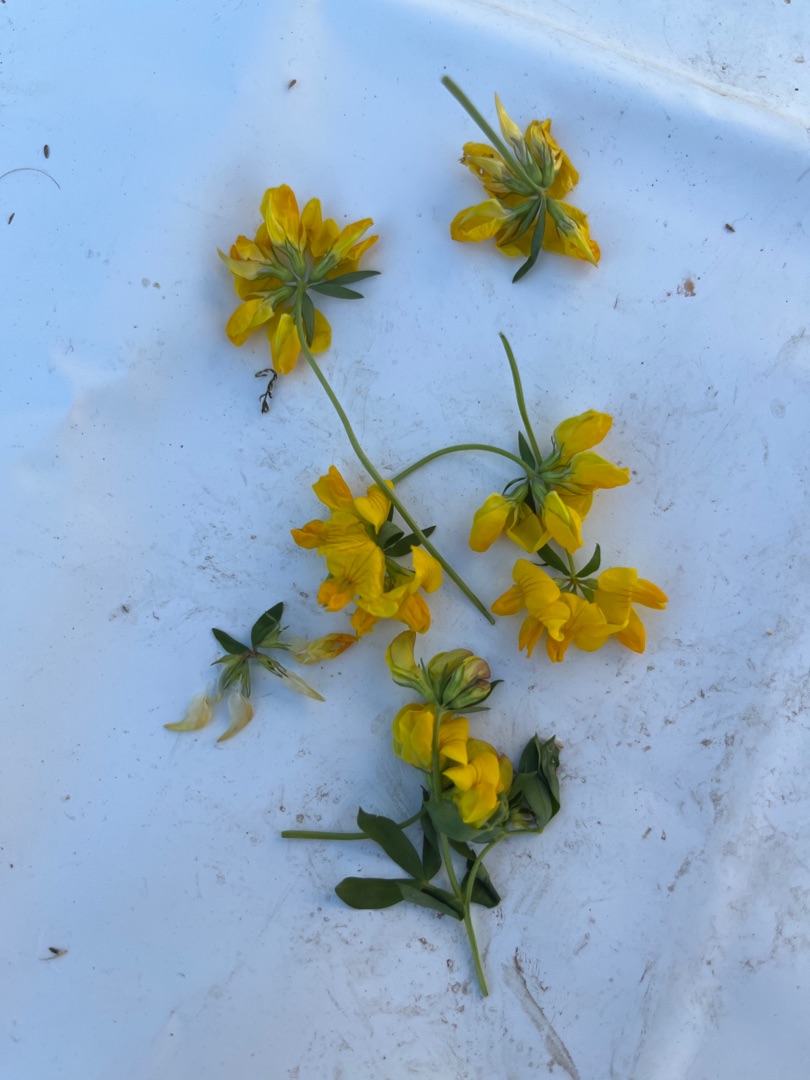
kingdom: Plantae
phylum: Tracheophyta
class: Magnoliopsida
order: Fabales
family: Fabaceae
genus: Lotus
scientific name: Lotus corniculatus
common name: Almindelig kællingetand
